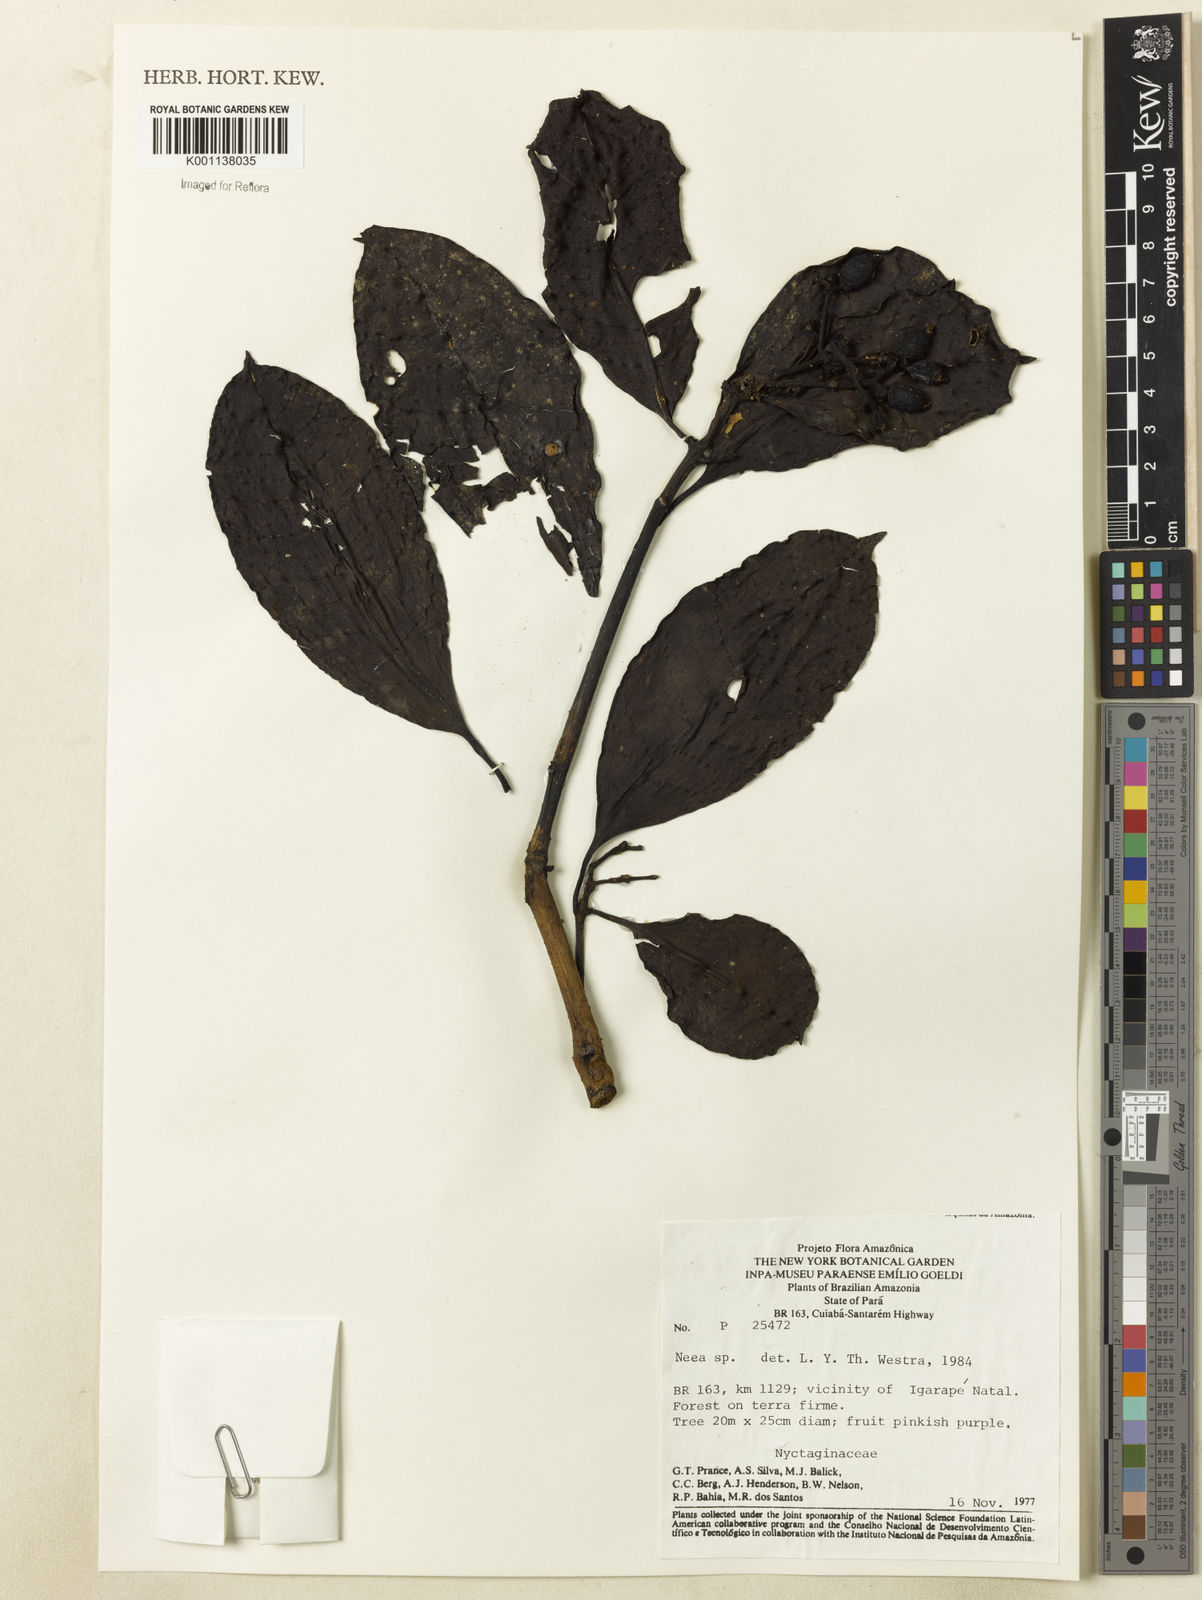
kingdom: Plantae
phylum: Tracheophyta
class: Magnoliopsida
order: Caryophyllales
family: Nyctaginaceae
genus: Neea
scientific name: Neea
